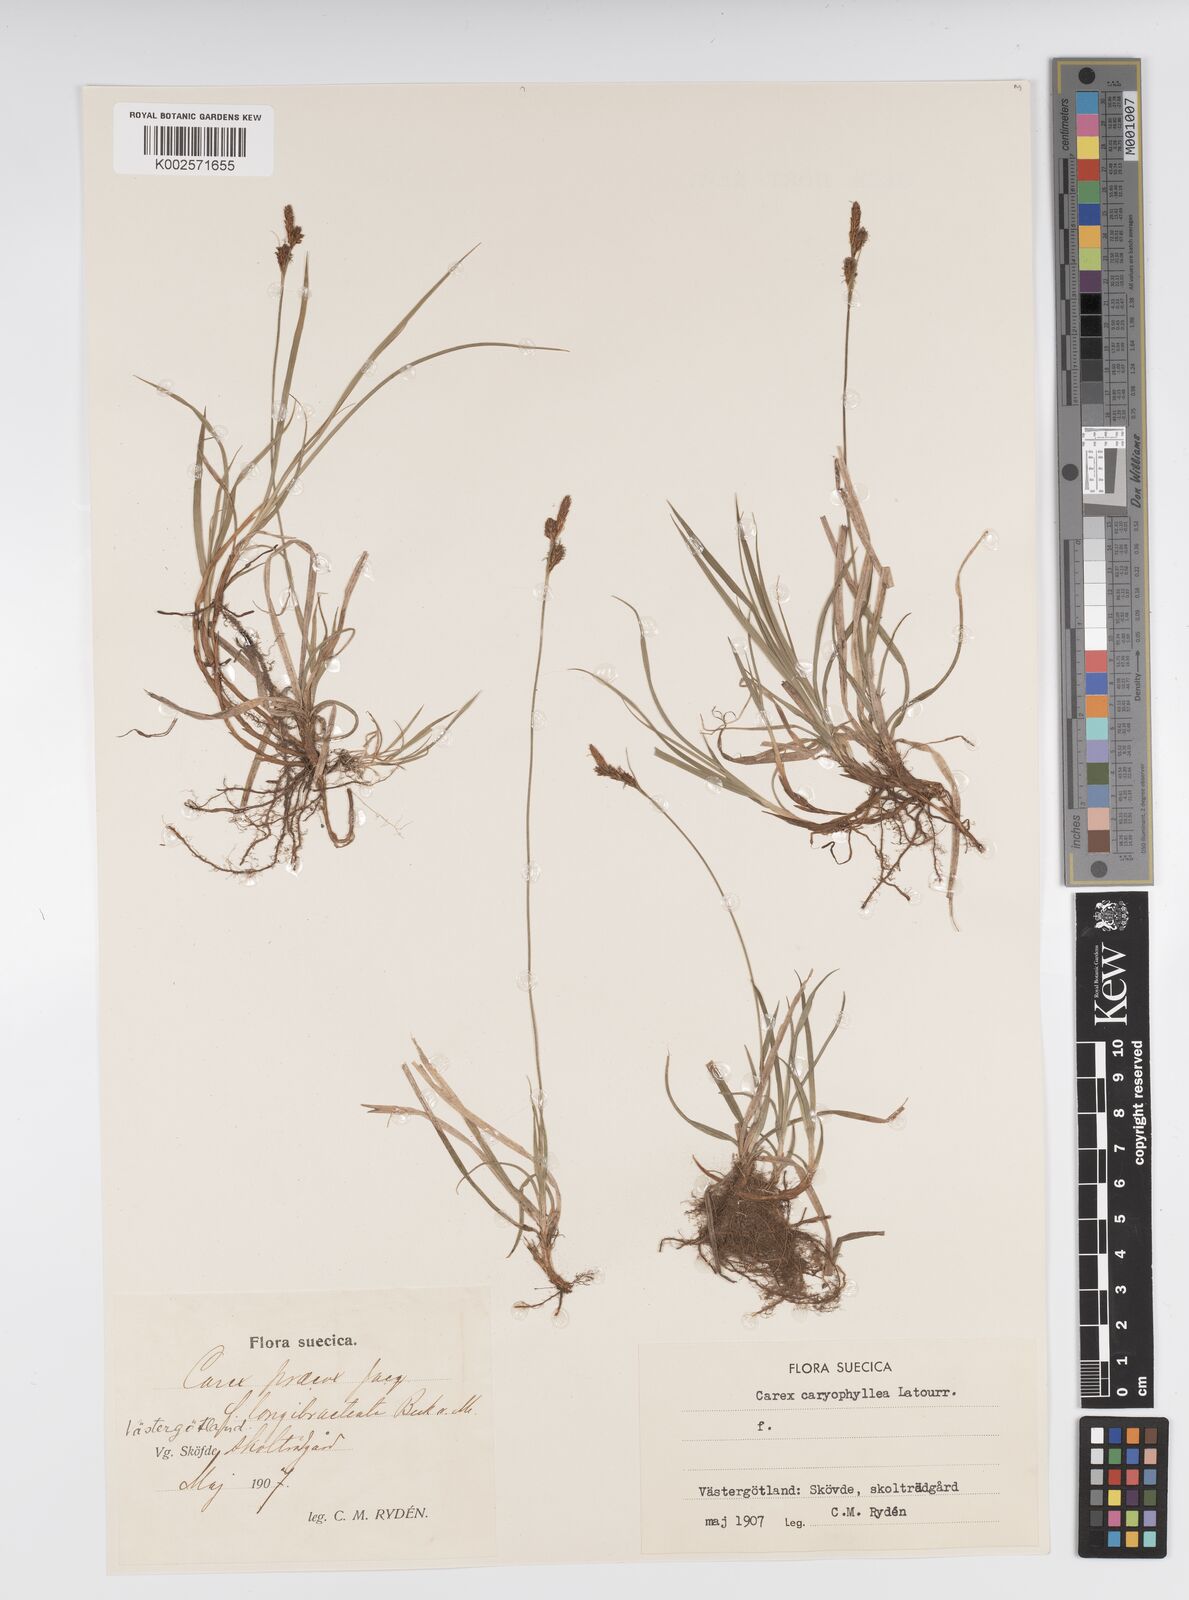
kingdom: Plantae
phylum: Tracheophyta
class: Liliopsida
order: Poales
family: Cyperaceae
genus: Carex
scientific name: Carex caryophyllea
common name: Spring sedge
